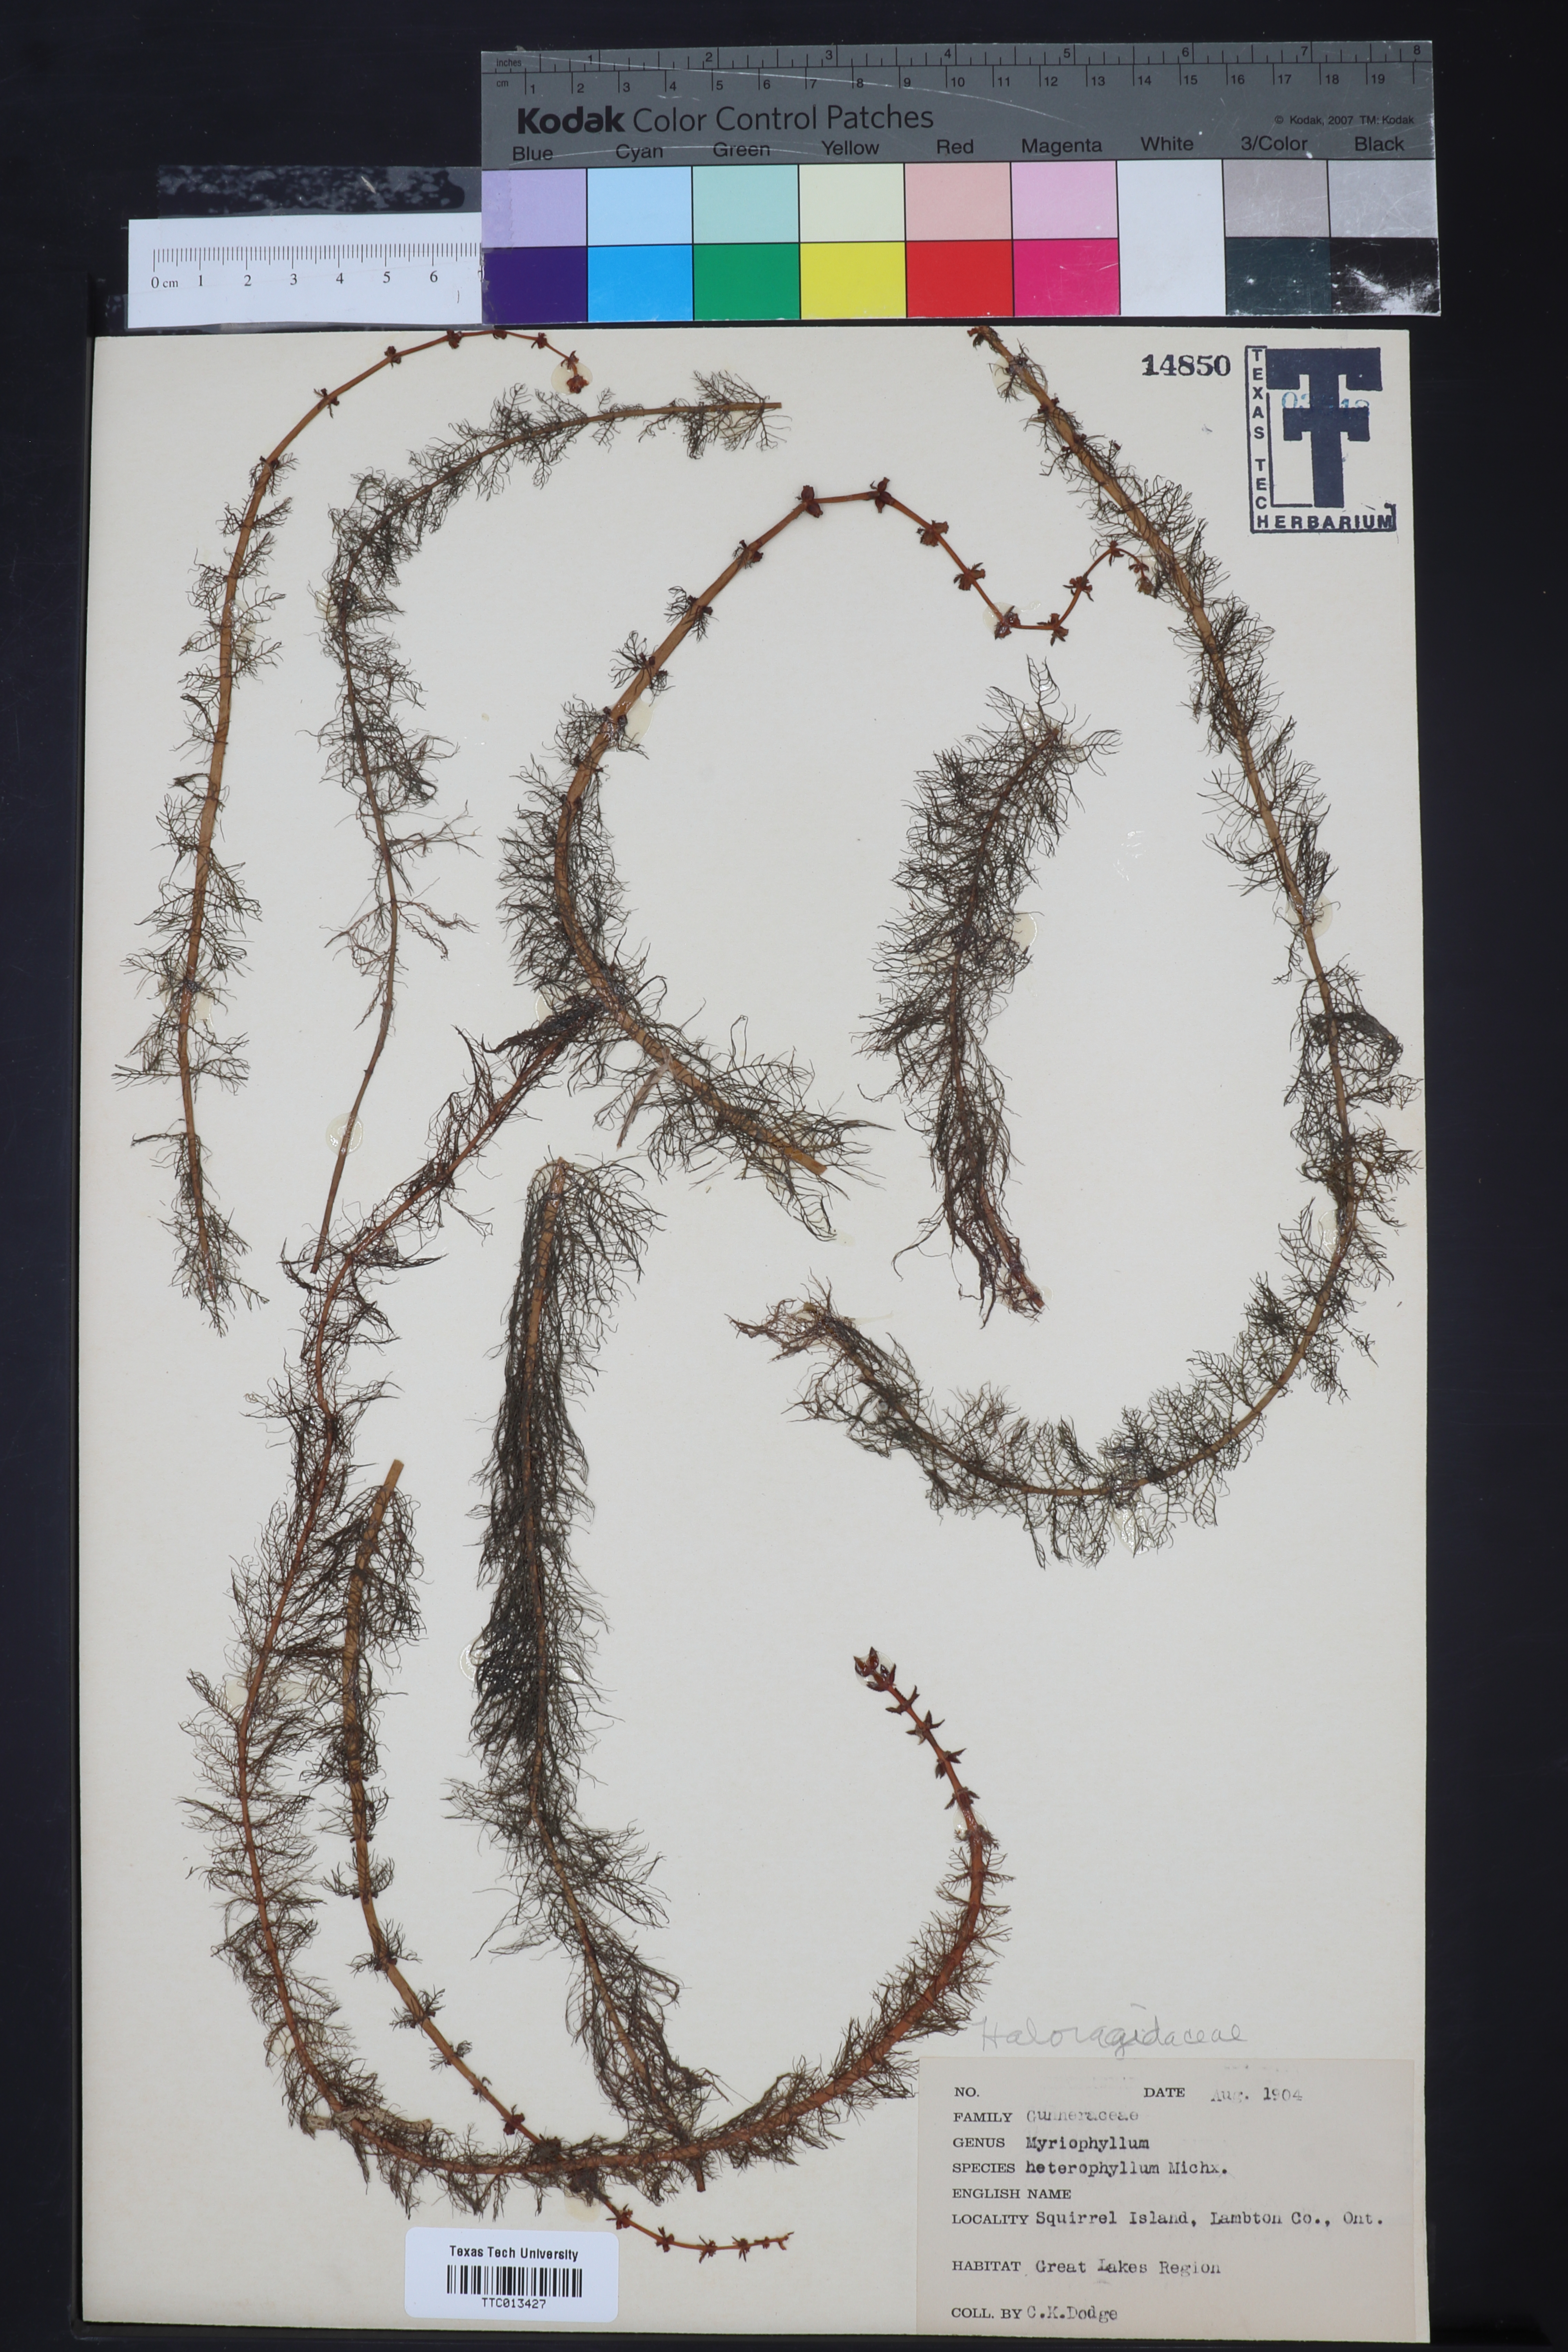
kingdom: Plantae
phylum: Tracheophyta
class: Magnoliopsida
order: Saxifragales
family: Haloragaceae
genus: Myriophyllum
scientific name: Myriophyllum heterophyllum
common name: Variable watermilfoil
